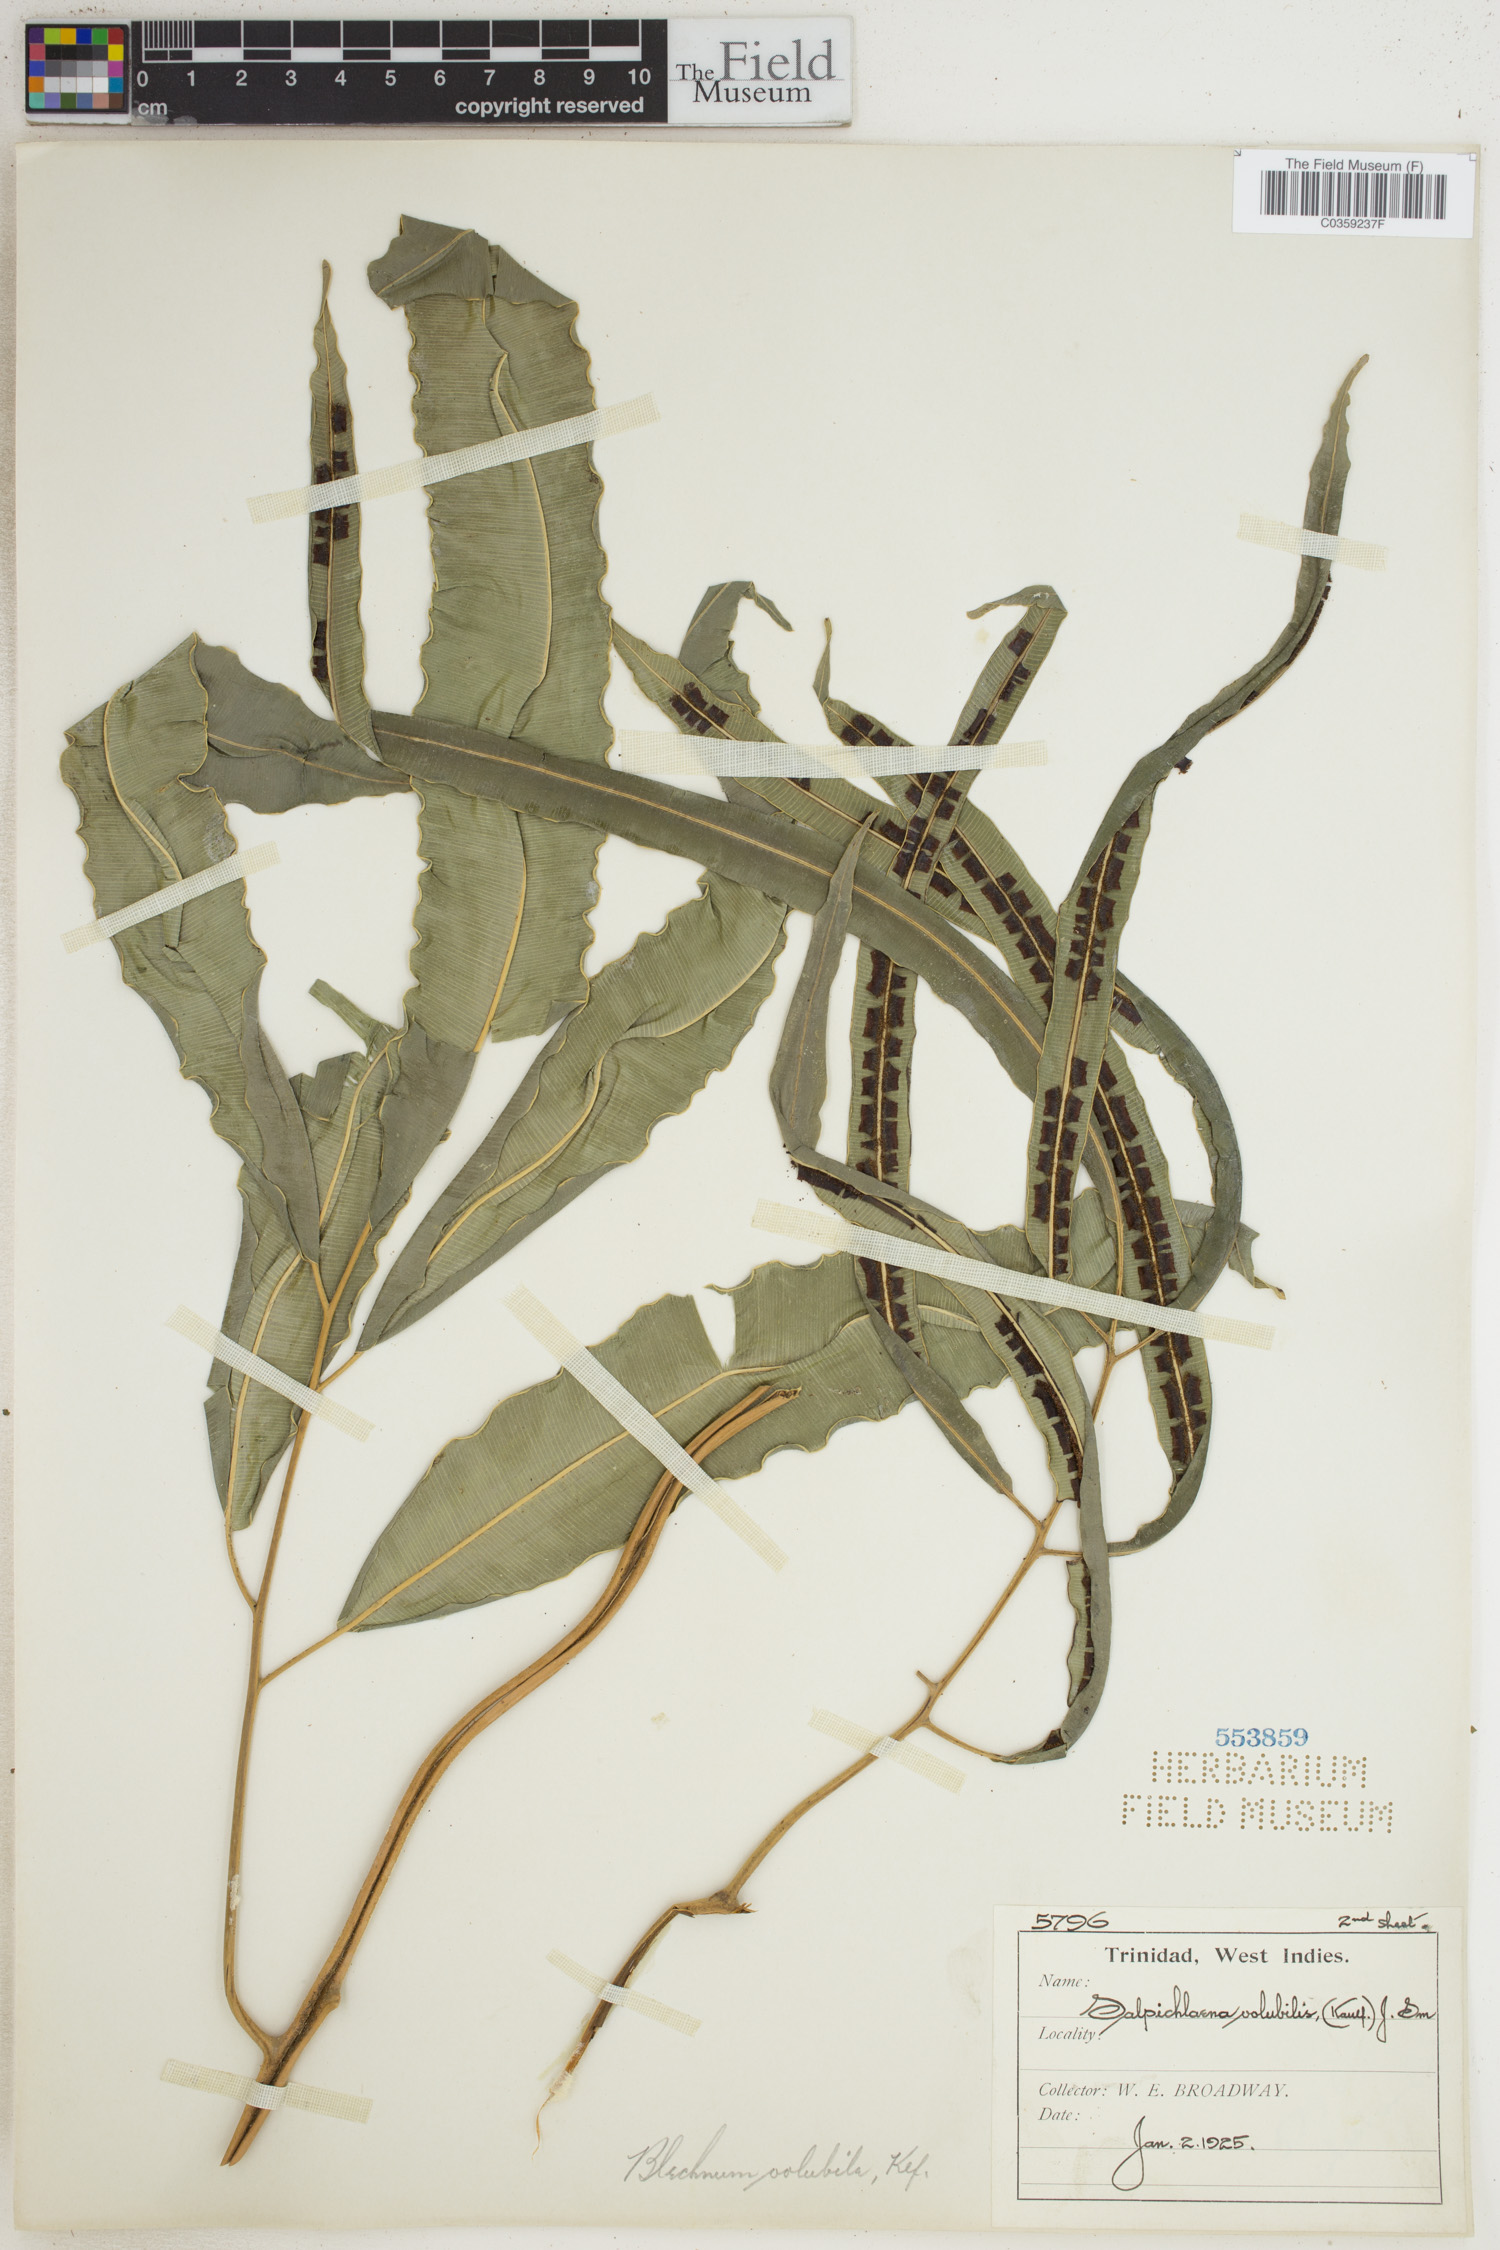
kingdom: Plantae
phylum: Tracheophyta
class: Polypodiopsida
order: Polypodiales
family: Blechnaceae
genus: Salpichlaena
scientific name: Salpichlaena volubilis
